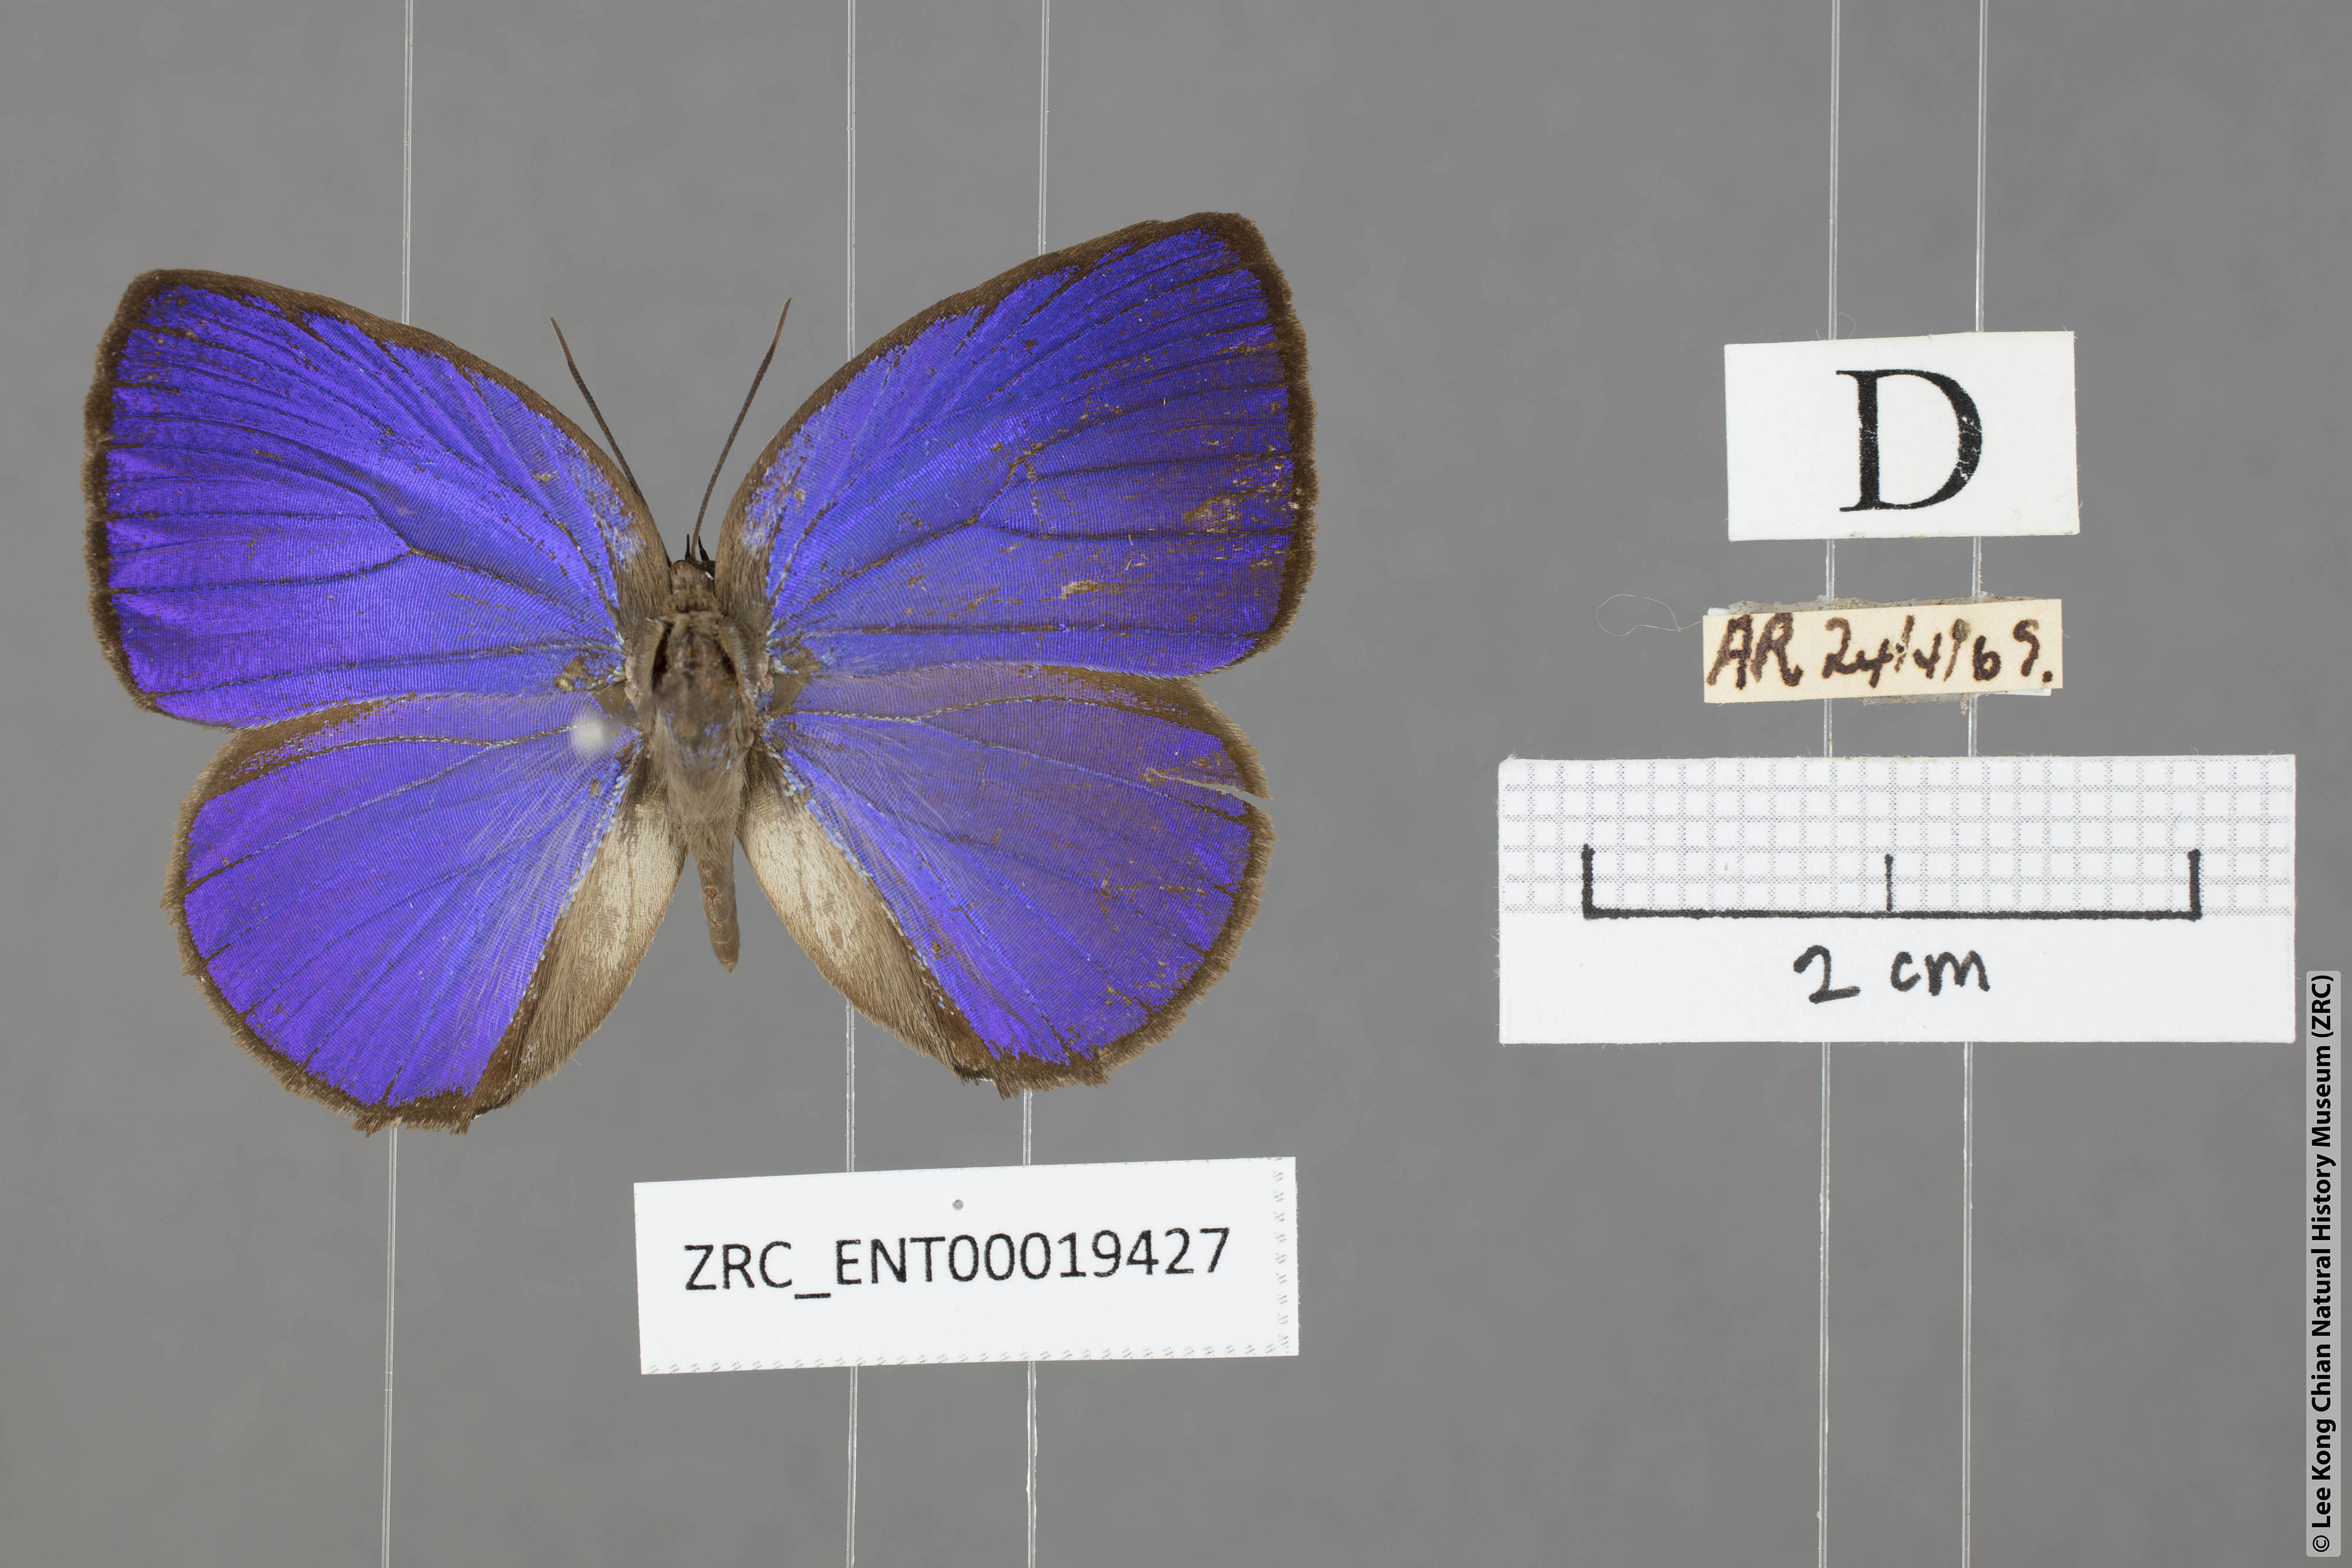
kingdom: Animalia
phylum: Arthropoda
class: Insecta
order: Lepidoptera
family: Lycaenidae
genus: Arhopala
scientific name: Arhopala epimuta
